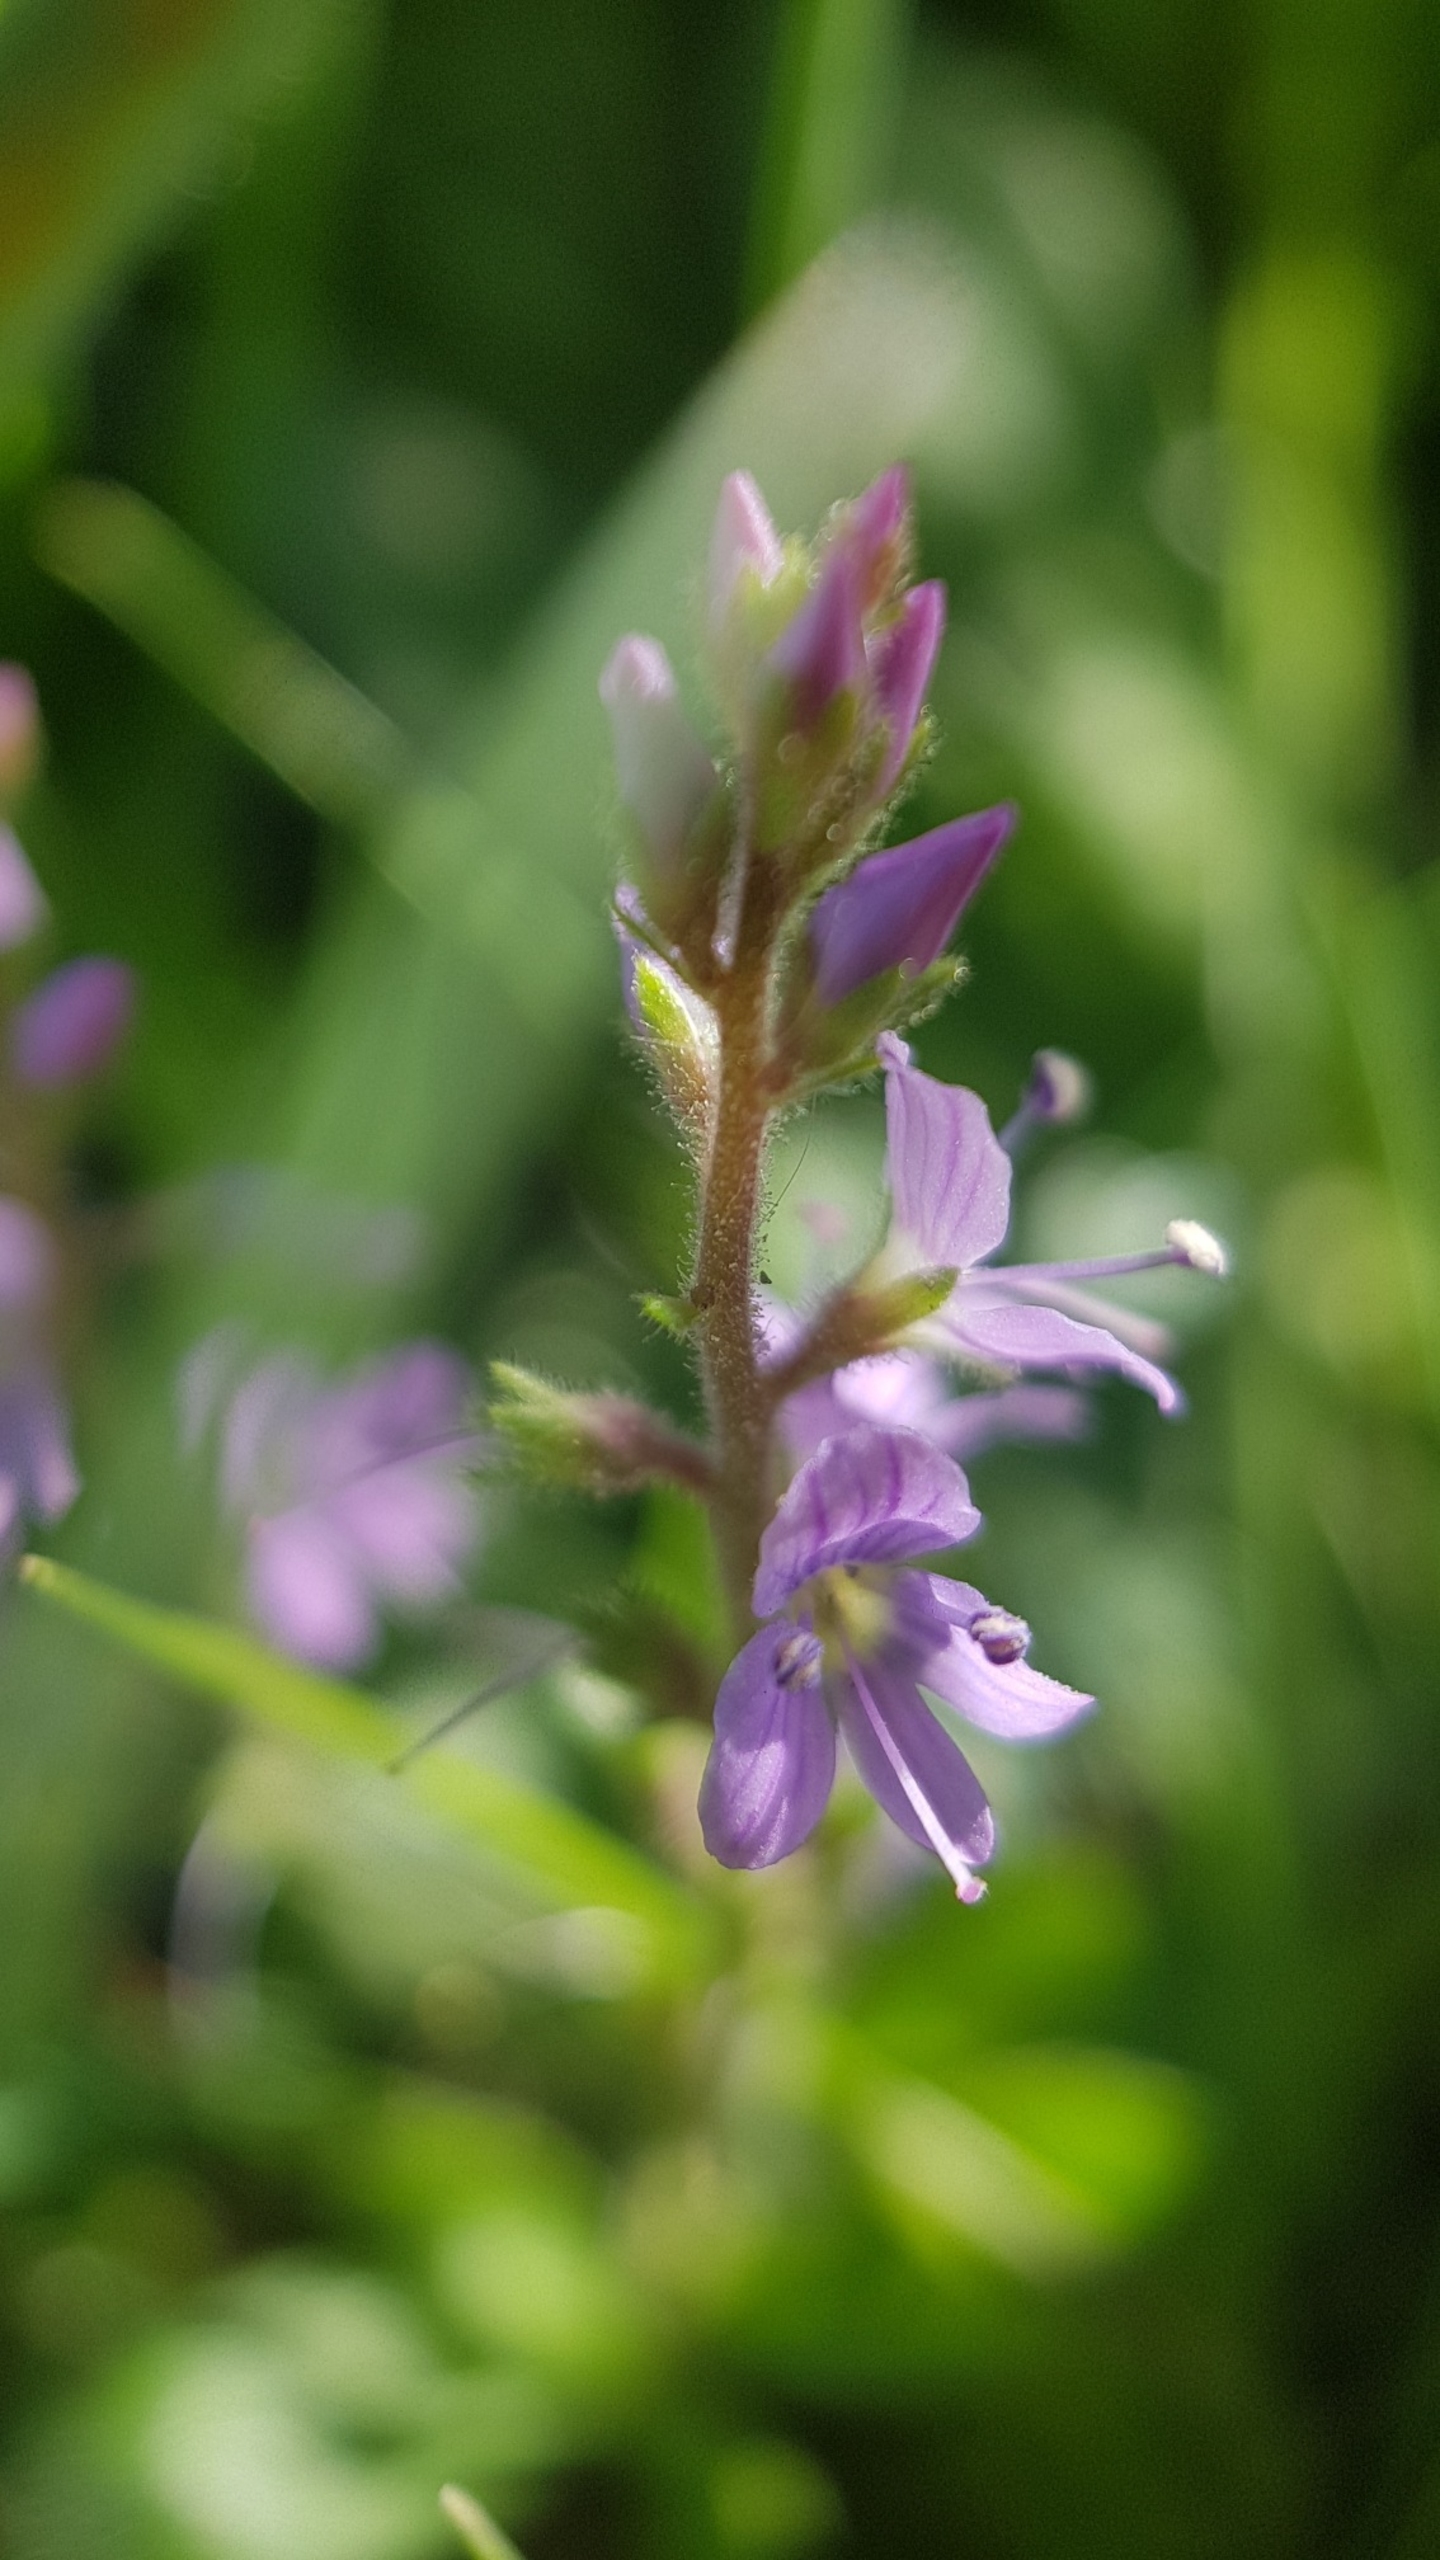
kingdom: Plantae
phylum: Tracheophyta
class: Magnoliopsida
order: Lamiales
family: Plantaginaceae
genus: Veronica
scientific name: Veronica officinalis
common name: Læge-ærenpris
